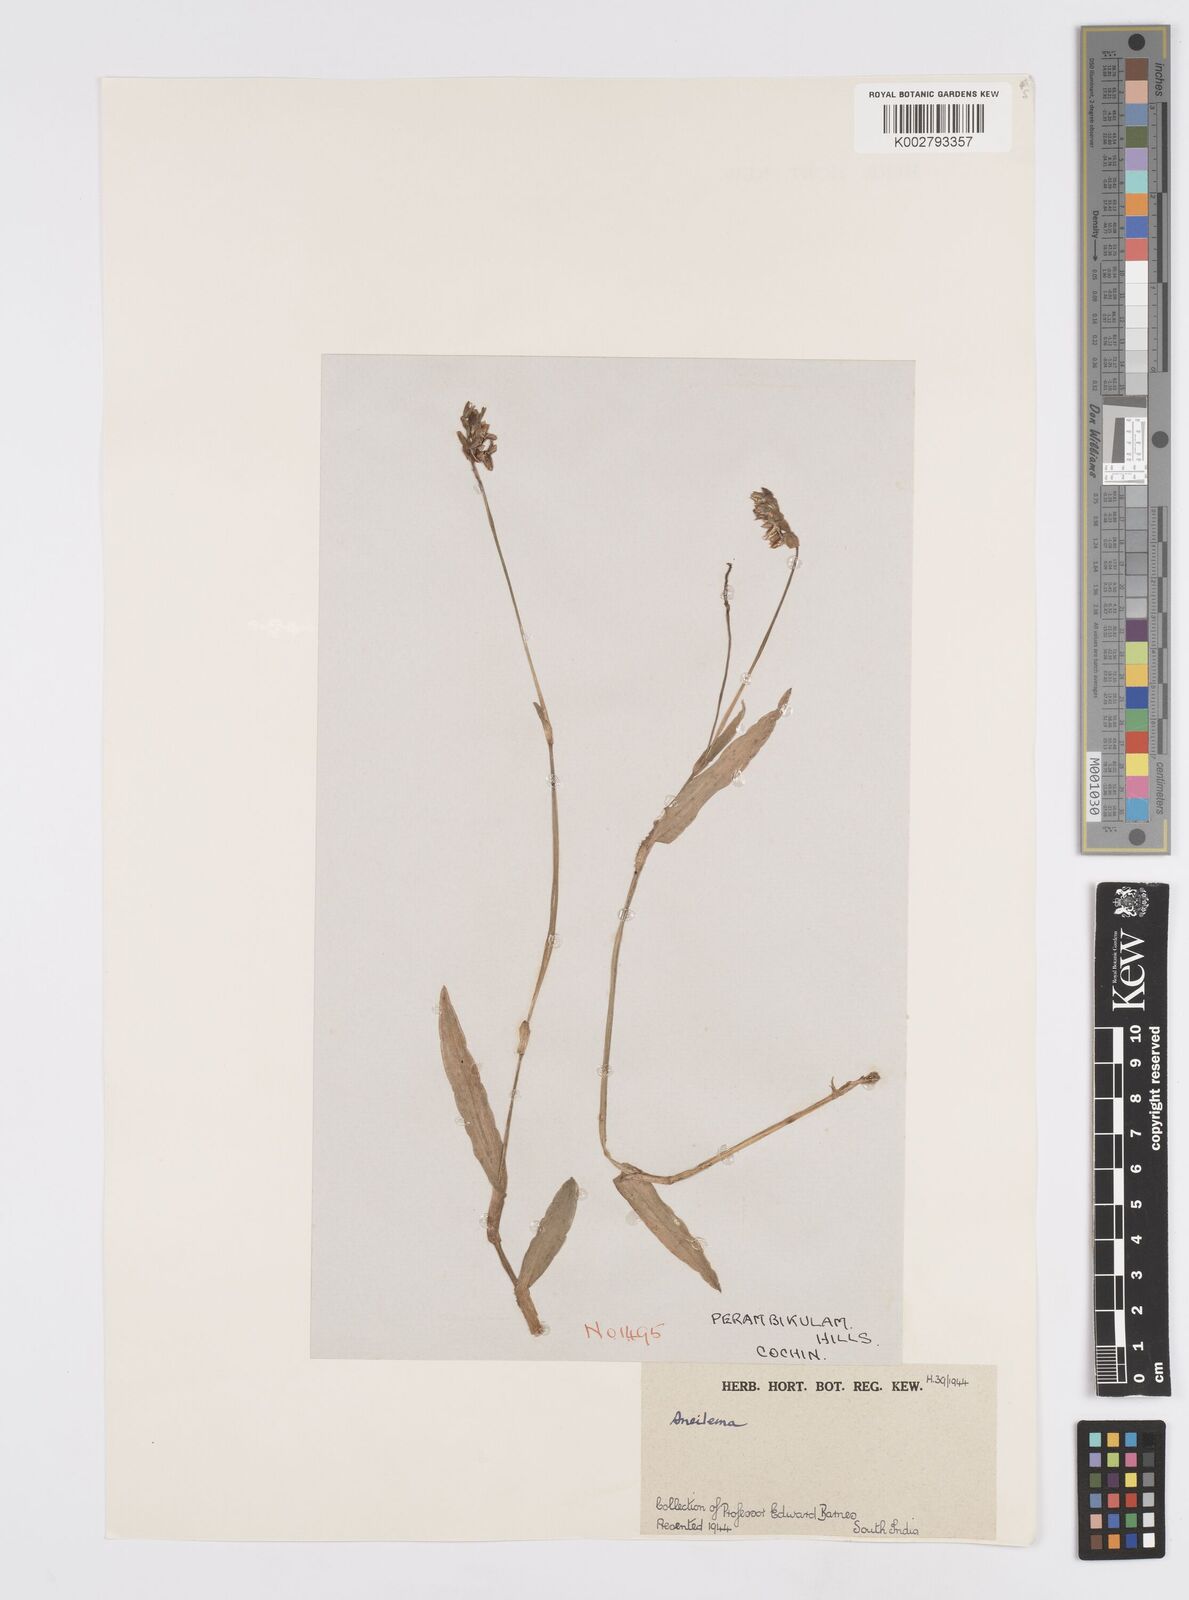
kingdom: Plantae
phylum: Tracheophyta
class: Liliopsida
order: Commelinales
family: Commelinaceae
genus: Murdannia
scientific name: Murdannia
